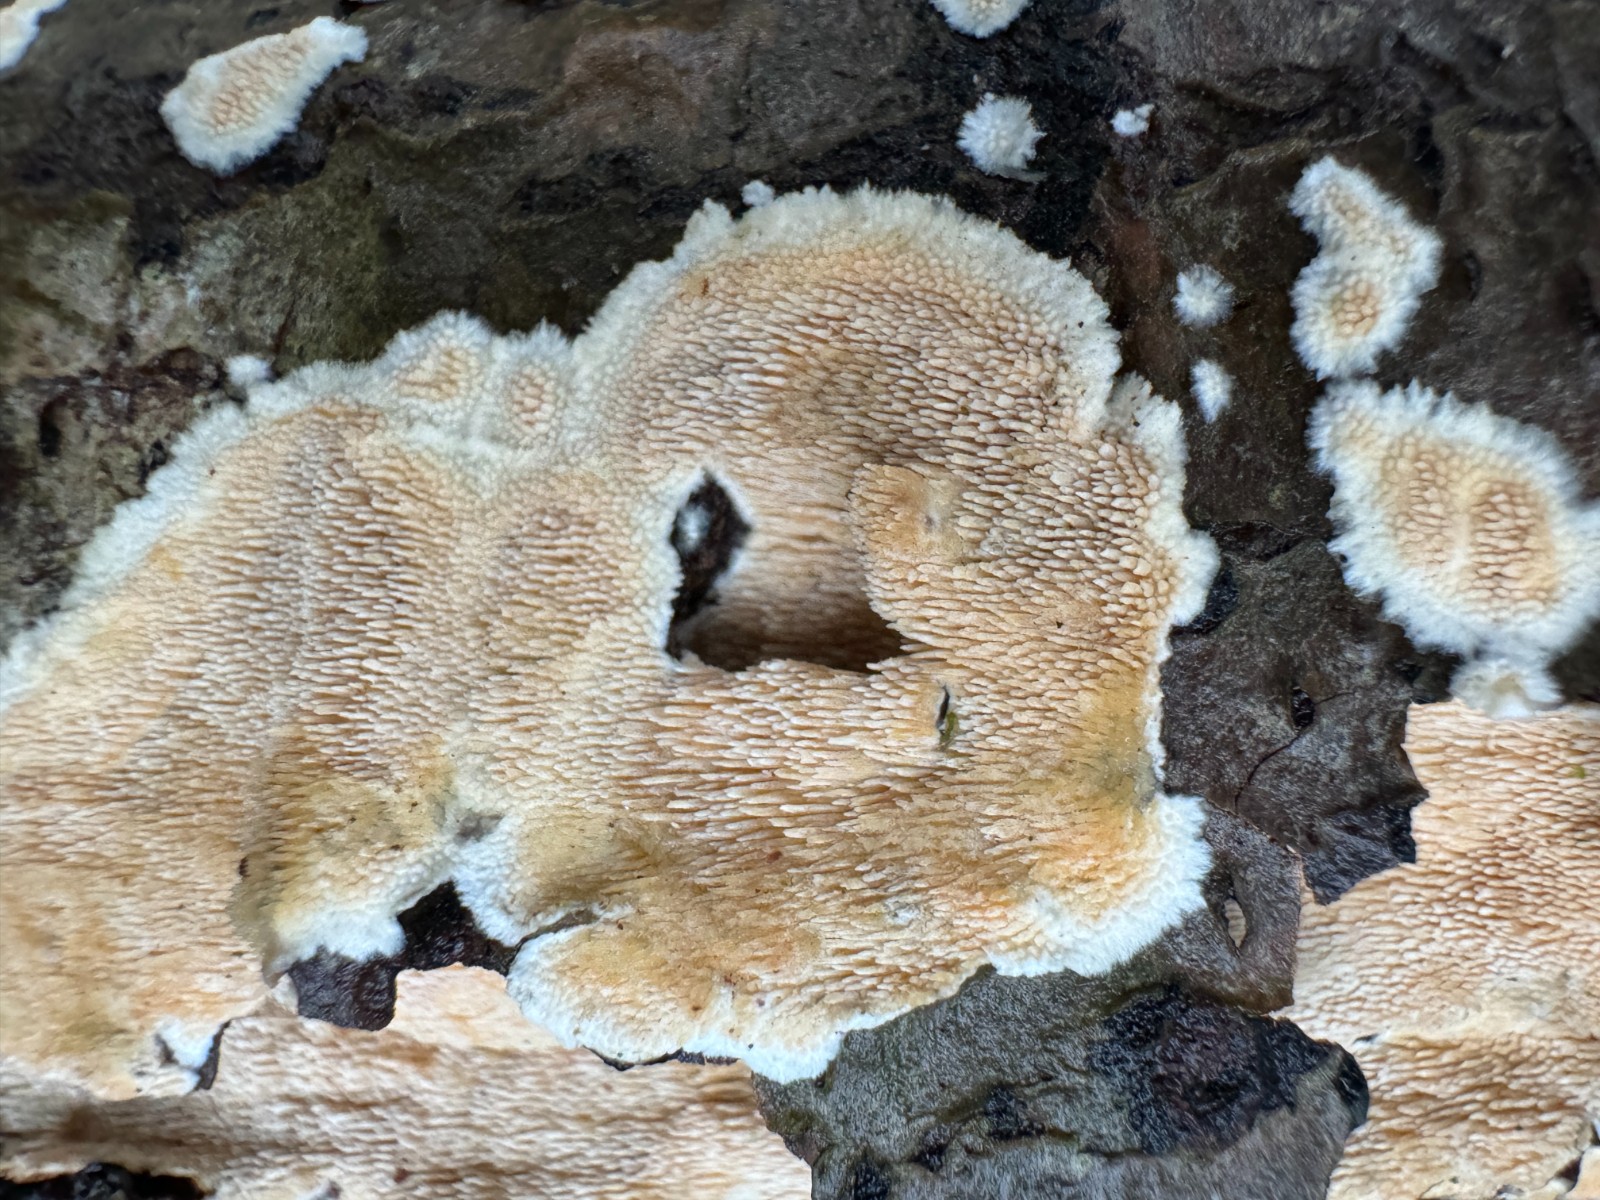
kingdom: Fungi
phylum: Basidiomycota
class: Agaricomycetes
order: Polyporales
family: Steccherinaceae
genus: Steccherinum
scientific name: Steccherinum ochraceum
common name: almindelig skønpig
